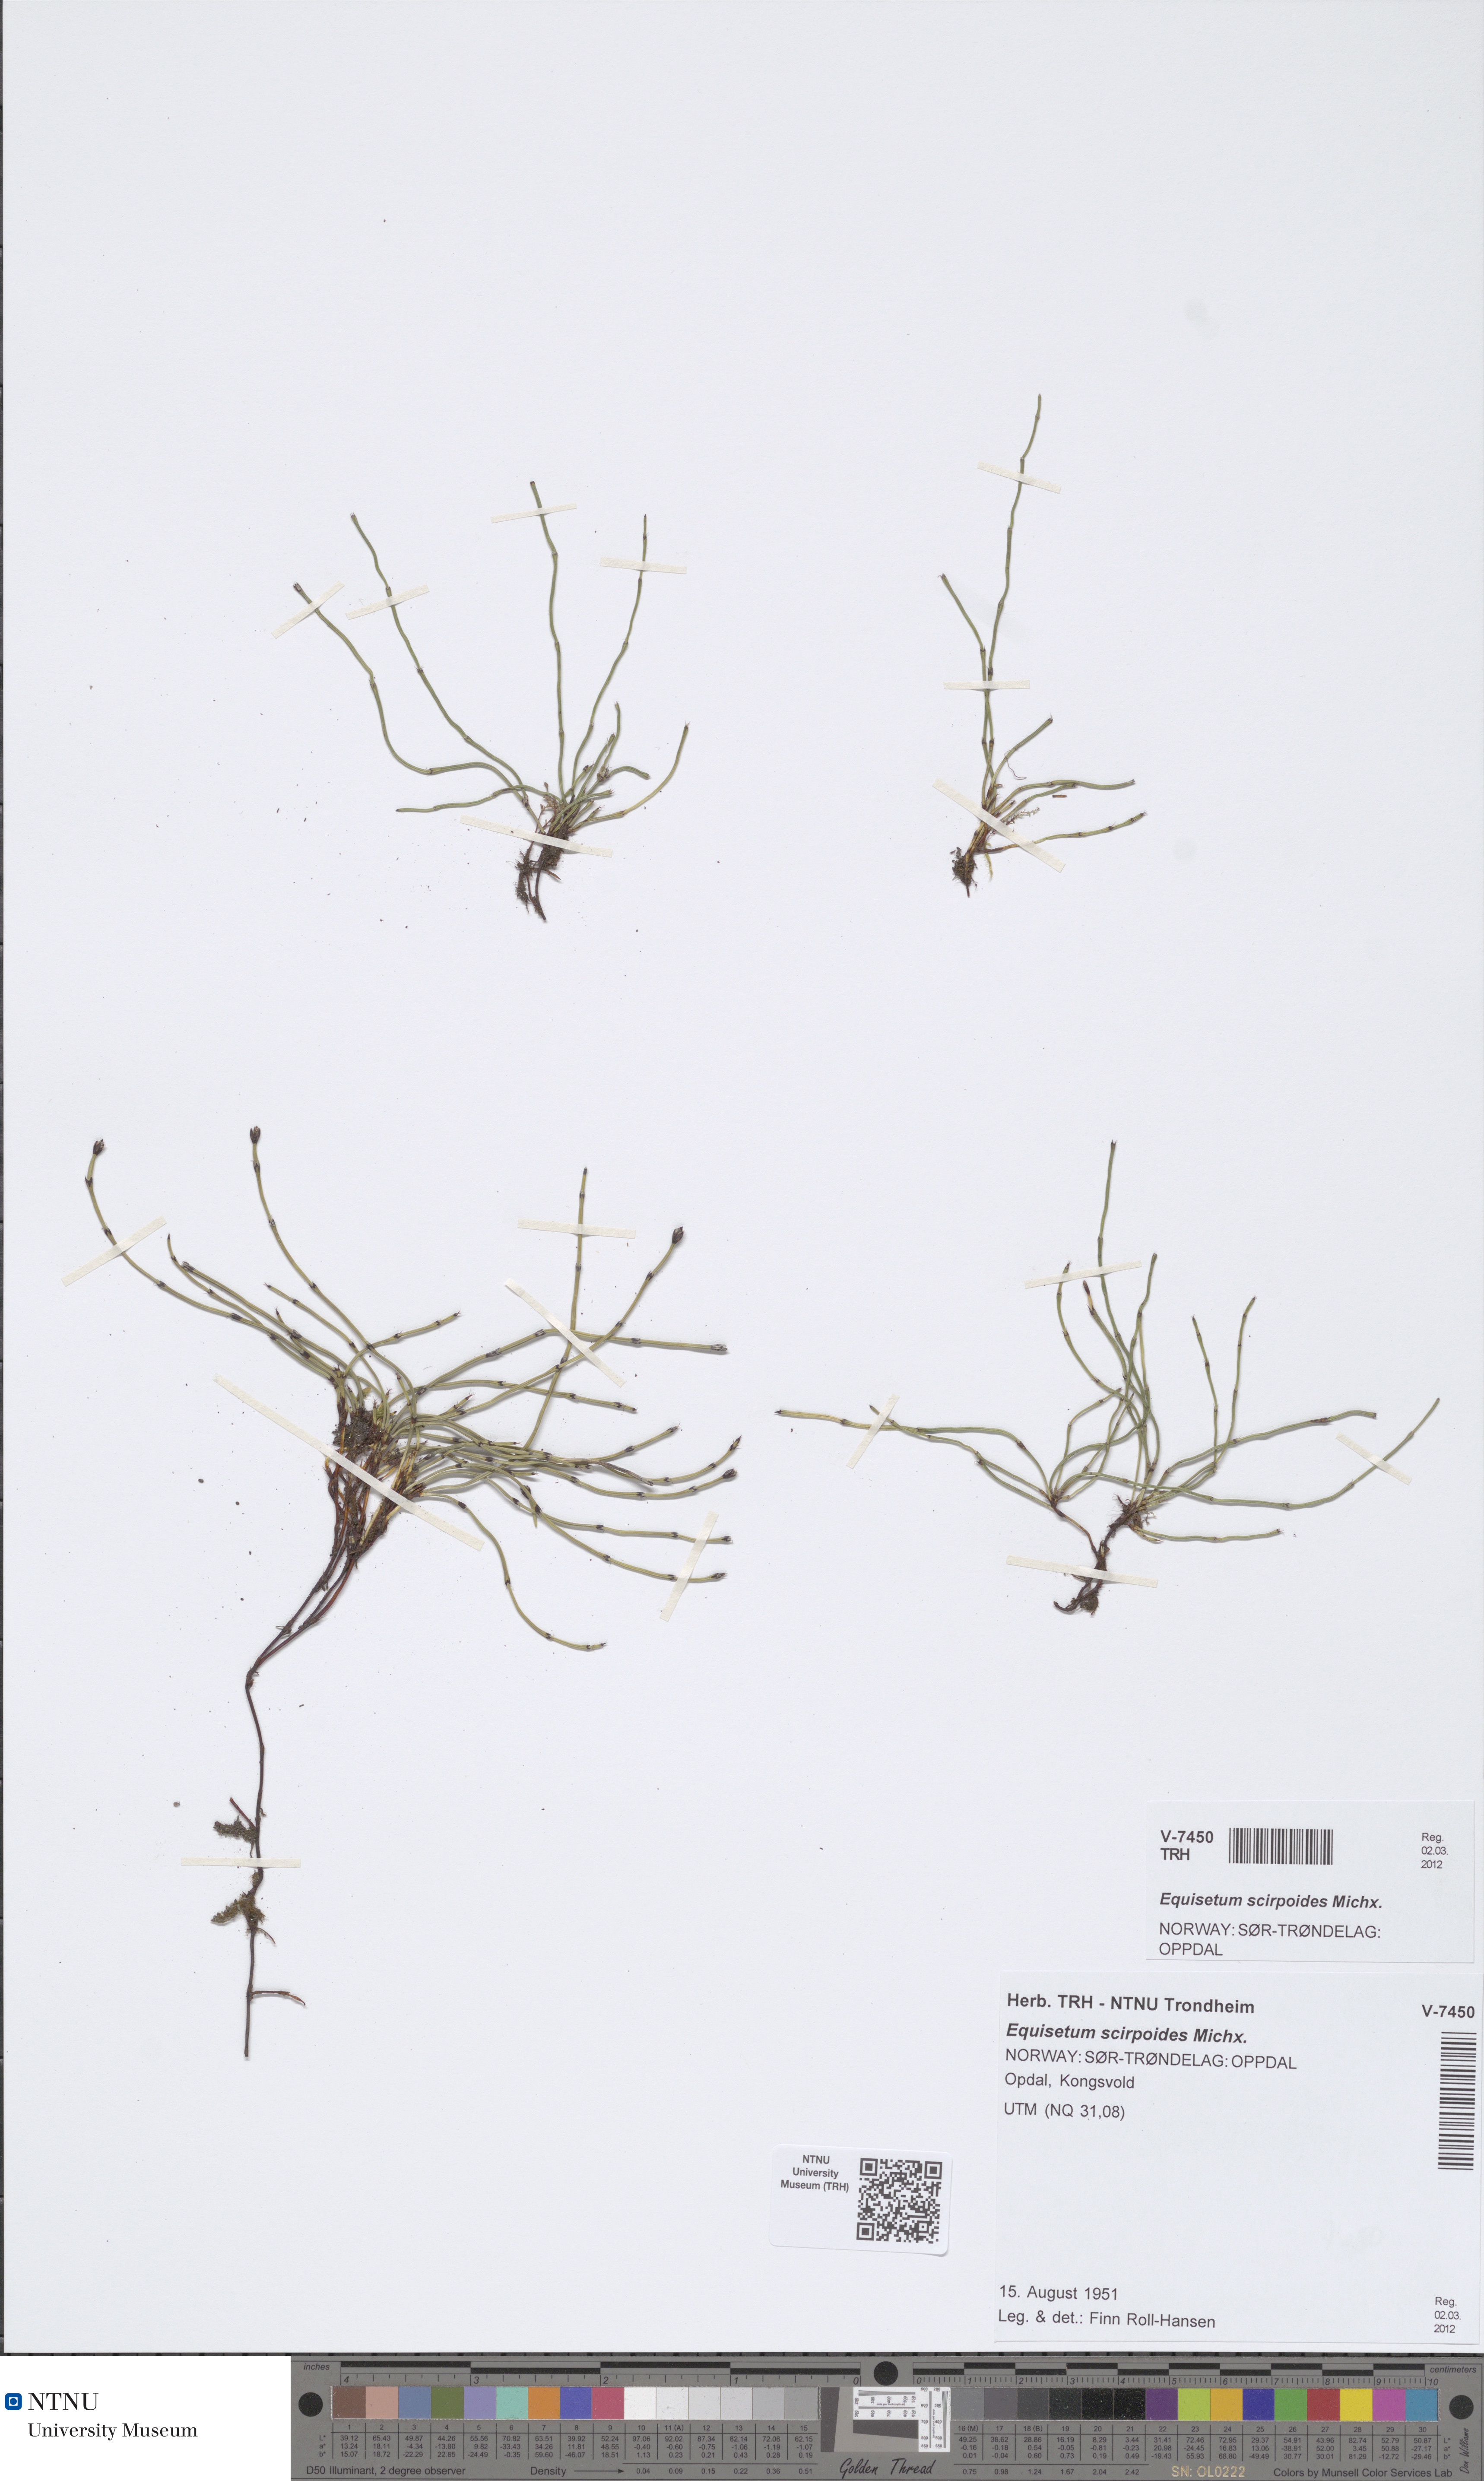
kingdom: Plantae
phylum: Tracheophyta
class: Polypodiopsida
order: Equisetales
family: Equisetaceae
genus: Equisetum
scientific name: Equisetum scirpoides
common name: Delicate horsetail
